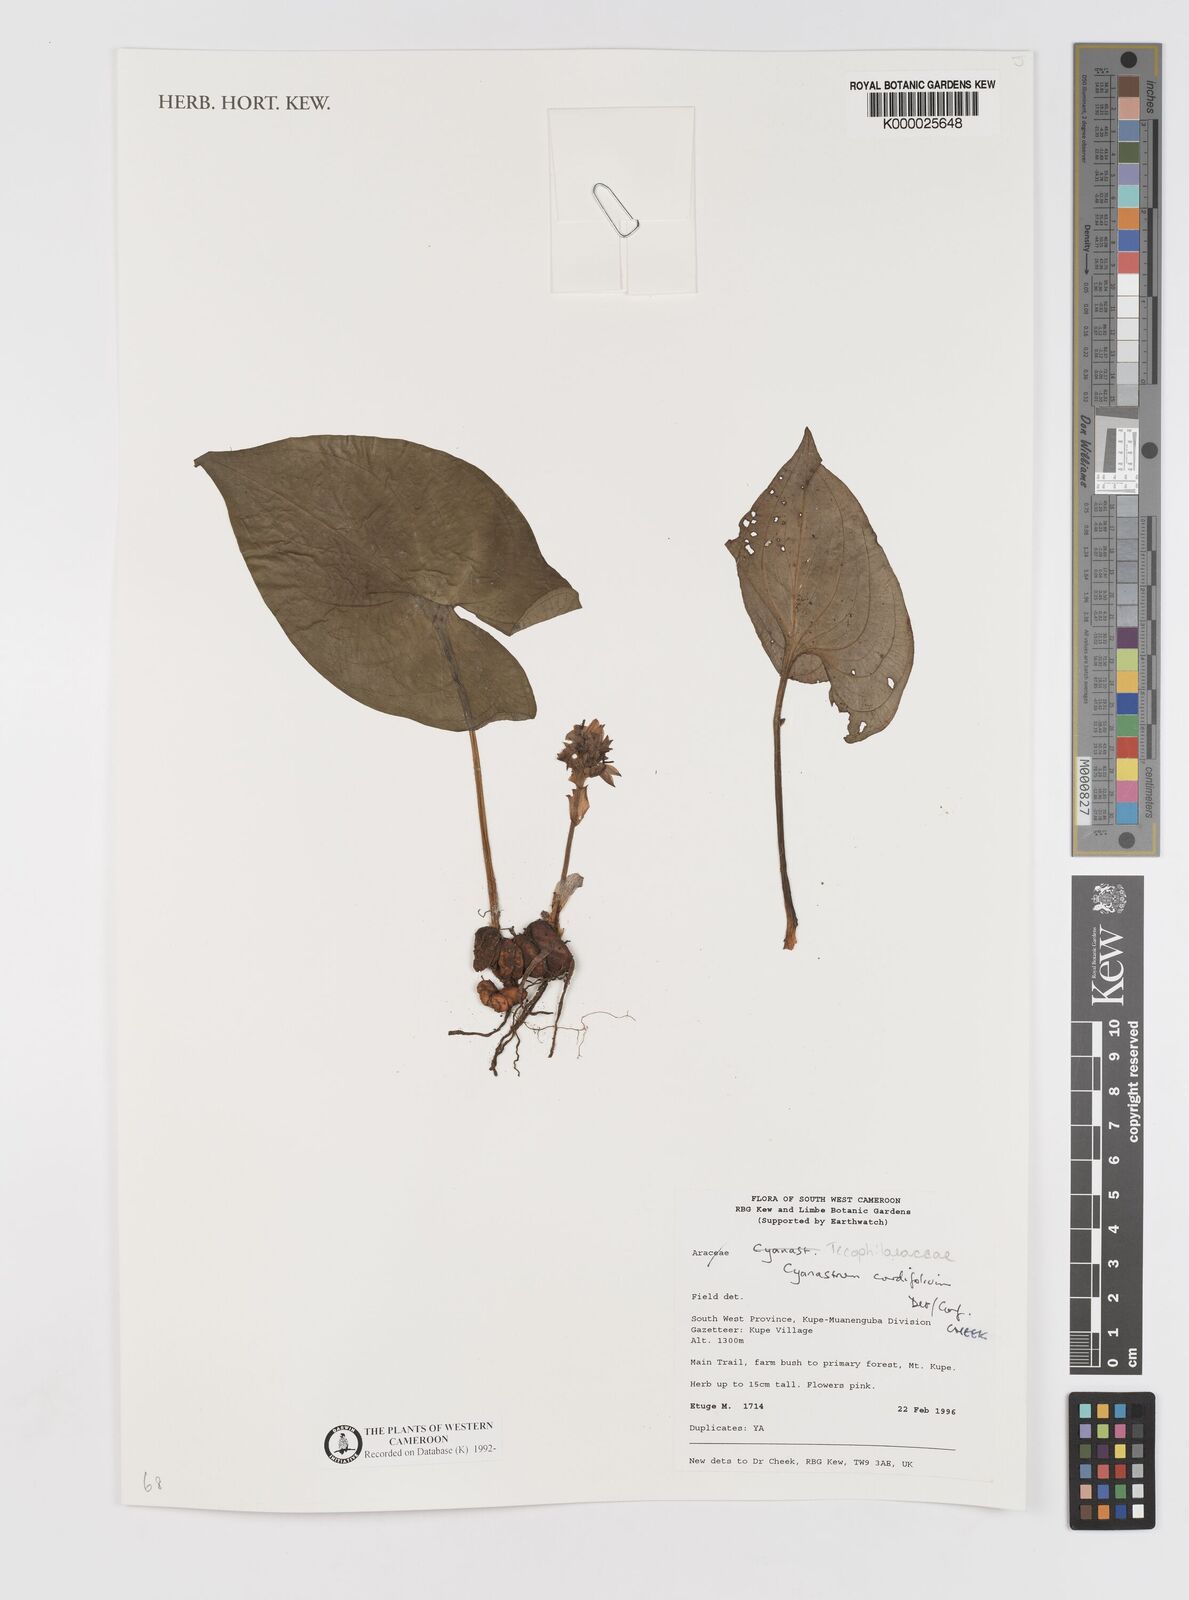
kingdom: Plantae
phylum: Tracheophyta
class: Liliopsida
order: Asparagales
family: Tecophilaeaceae
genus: Cyanastrum
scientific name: Cyanastrum cordifolium
